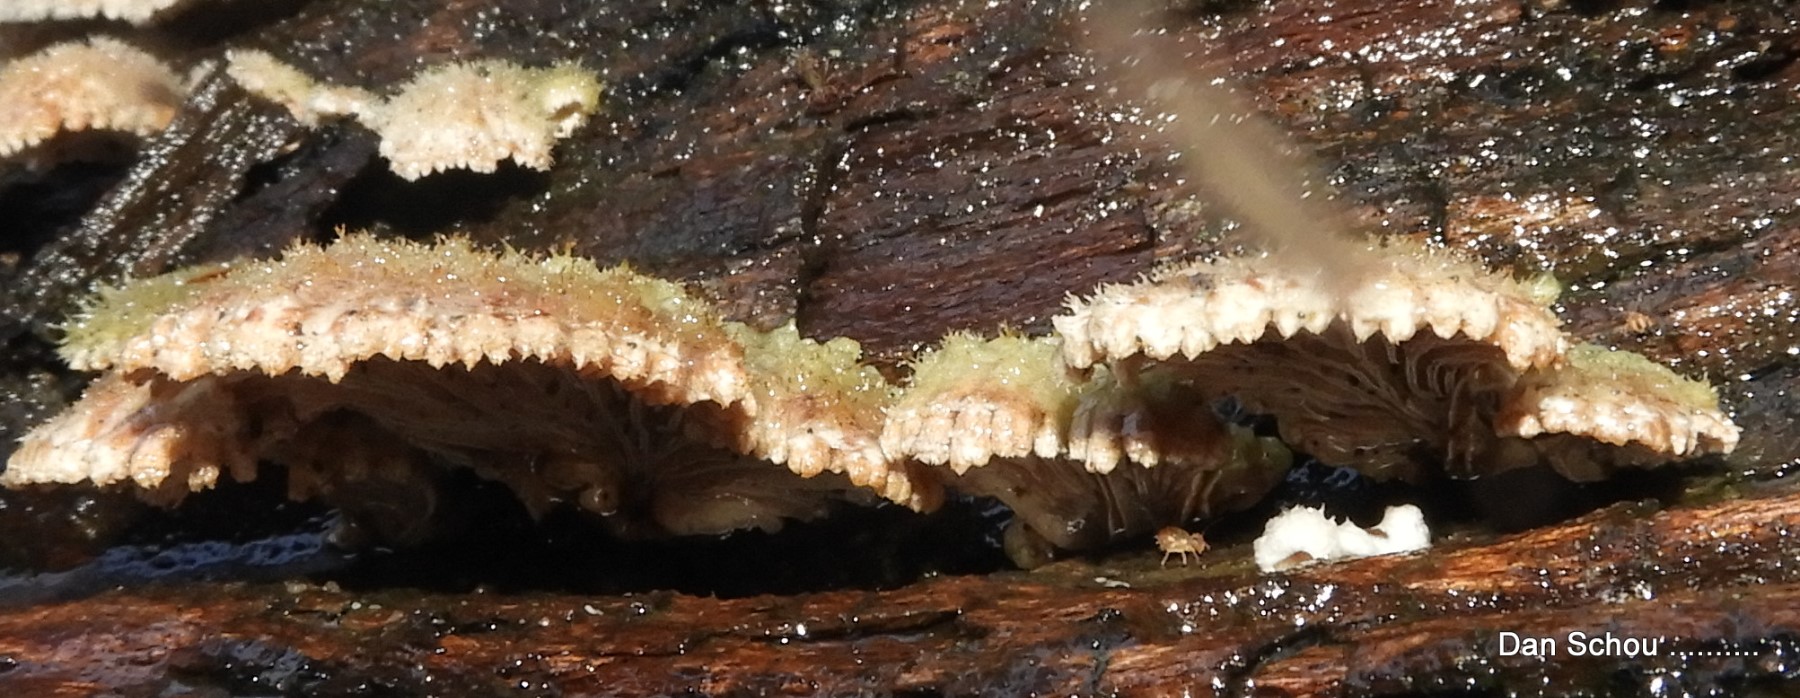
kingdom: Fungi
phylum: Basidiomycota
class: Agaricomycetes
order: Agaricales
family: Schizophyllaceae
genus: Schizophyllum
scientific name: Schizophyllum commune
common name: kløvblad
